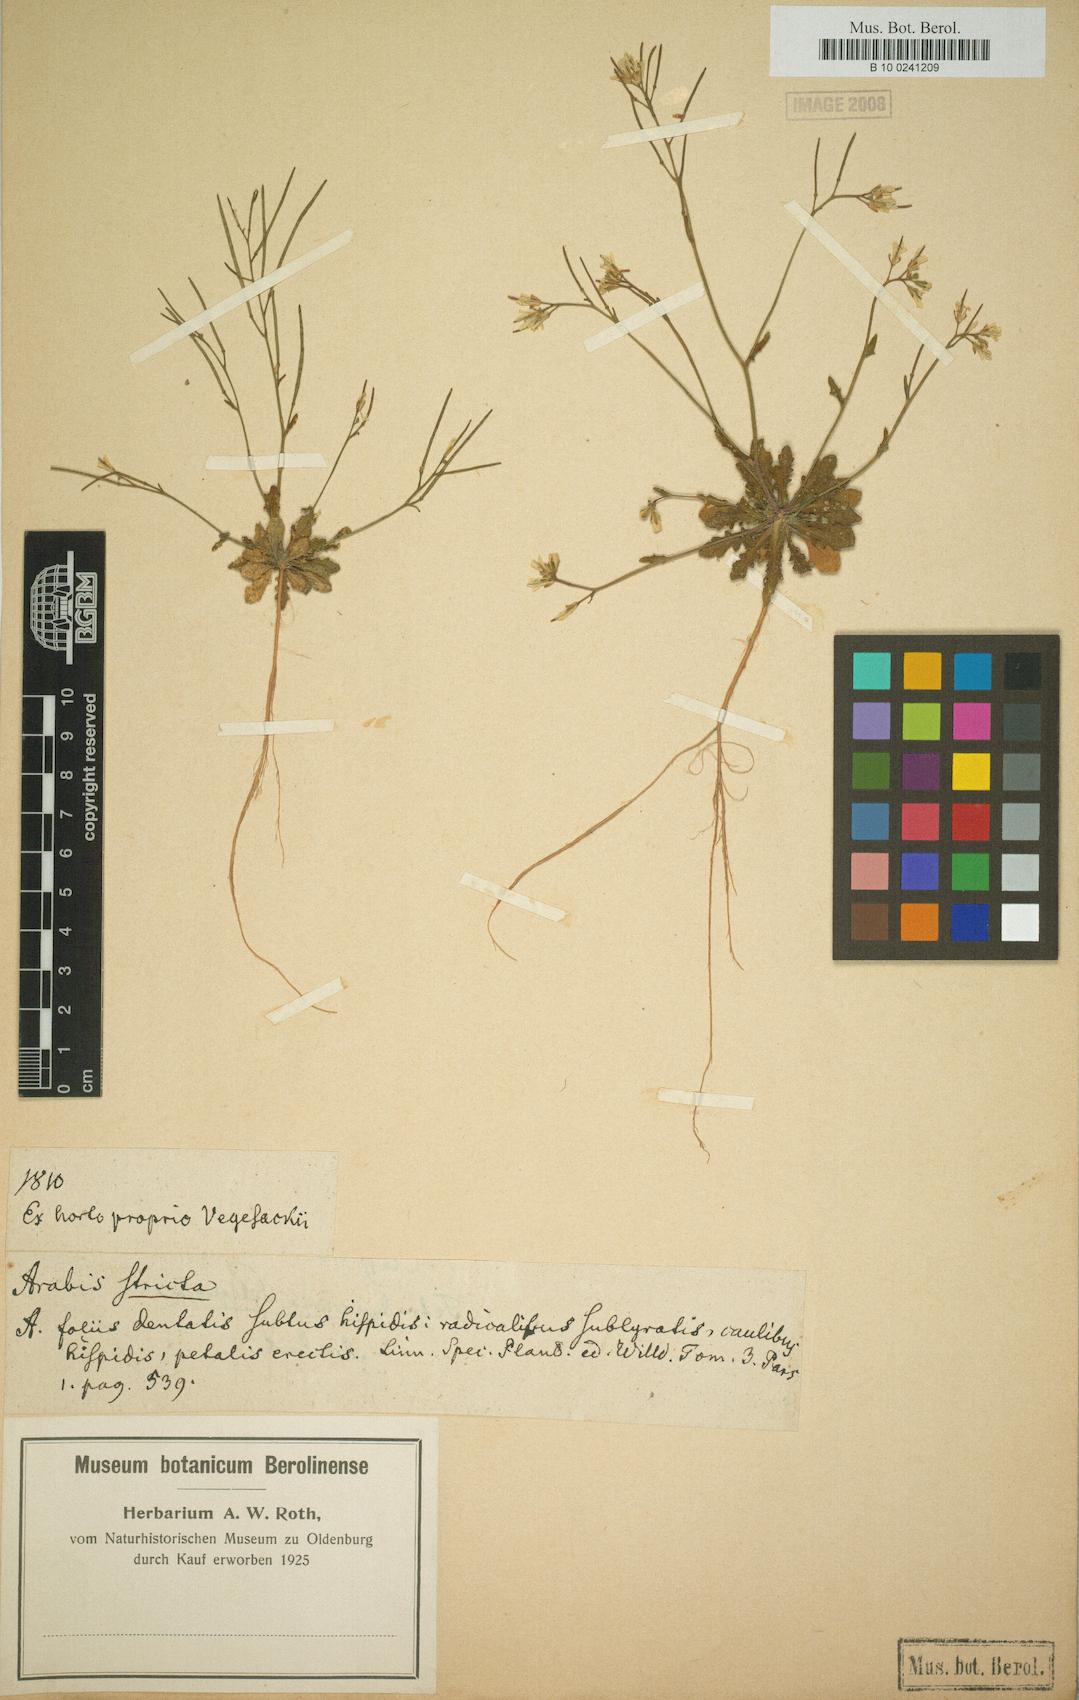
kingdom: Plantae
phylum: Tracheophyta
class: Magnoliopsida
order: Brassicales
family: Brassicaceae
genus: Arabis
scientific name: Arabis scabra
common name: Bristol rock-cress
